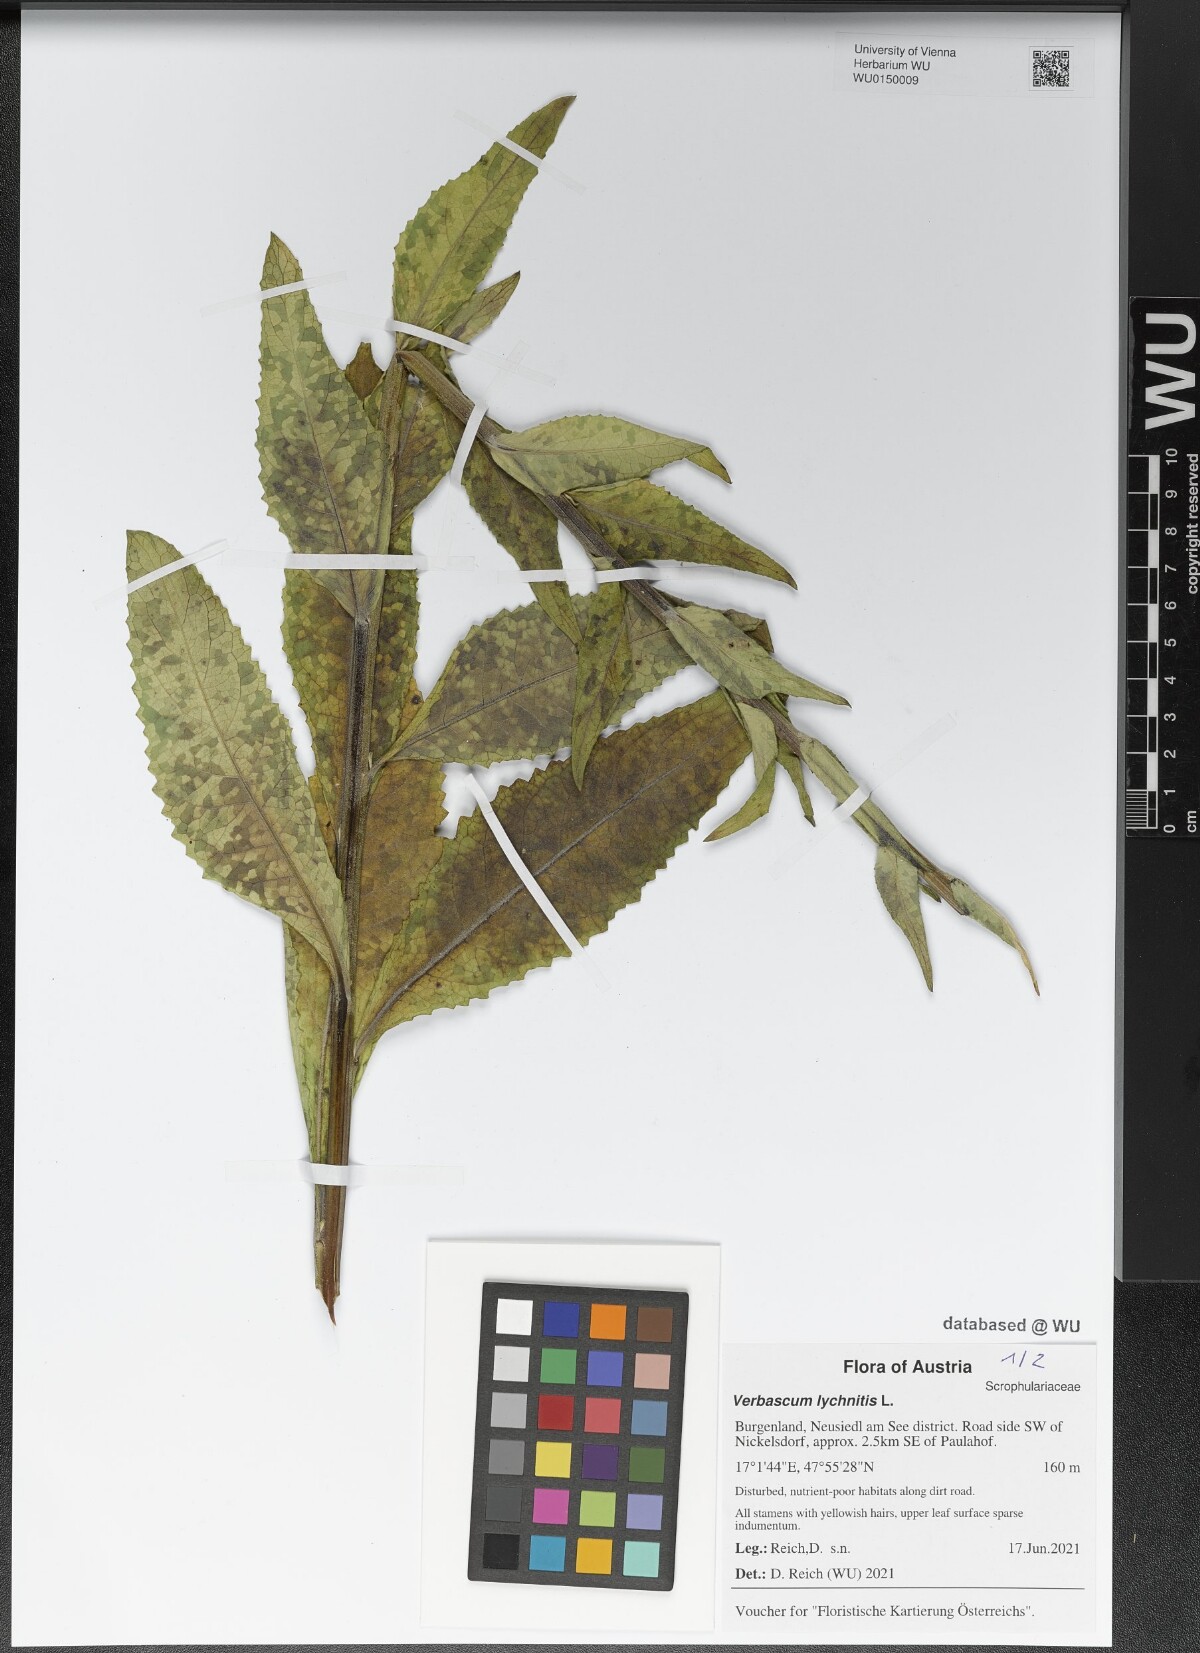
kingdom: Plantae
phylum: Tracheophyta
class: Magnoliopsida
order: Lamiales
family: Scrophulariaceae
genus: Verbascum
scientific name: Verbascum lychnitis
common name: White mullein
